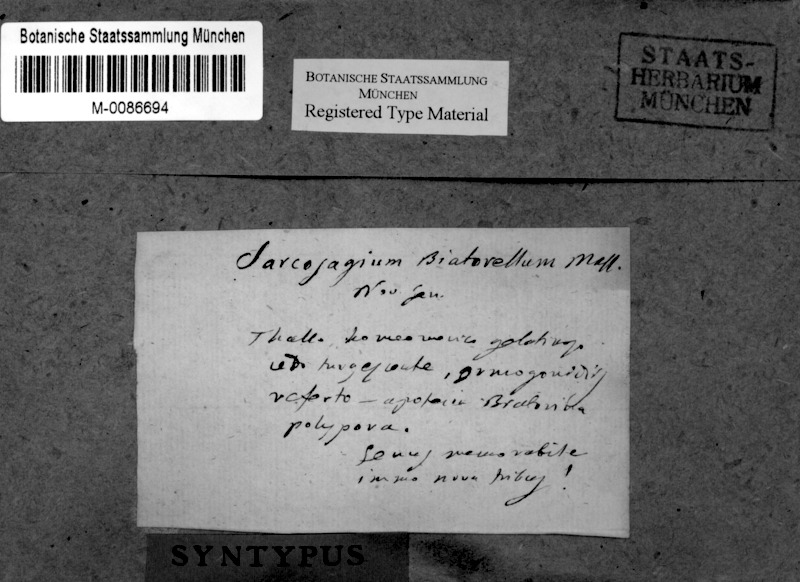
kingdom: Fungi
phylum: Ascomycota
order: Thelocarpales
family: Thelocarpaceae
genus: Sarcosagium
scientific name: Sarcosagium campestre
